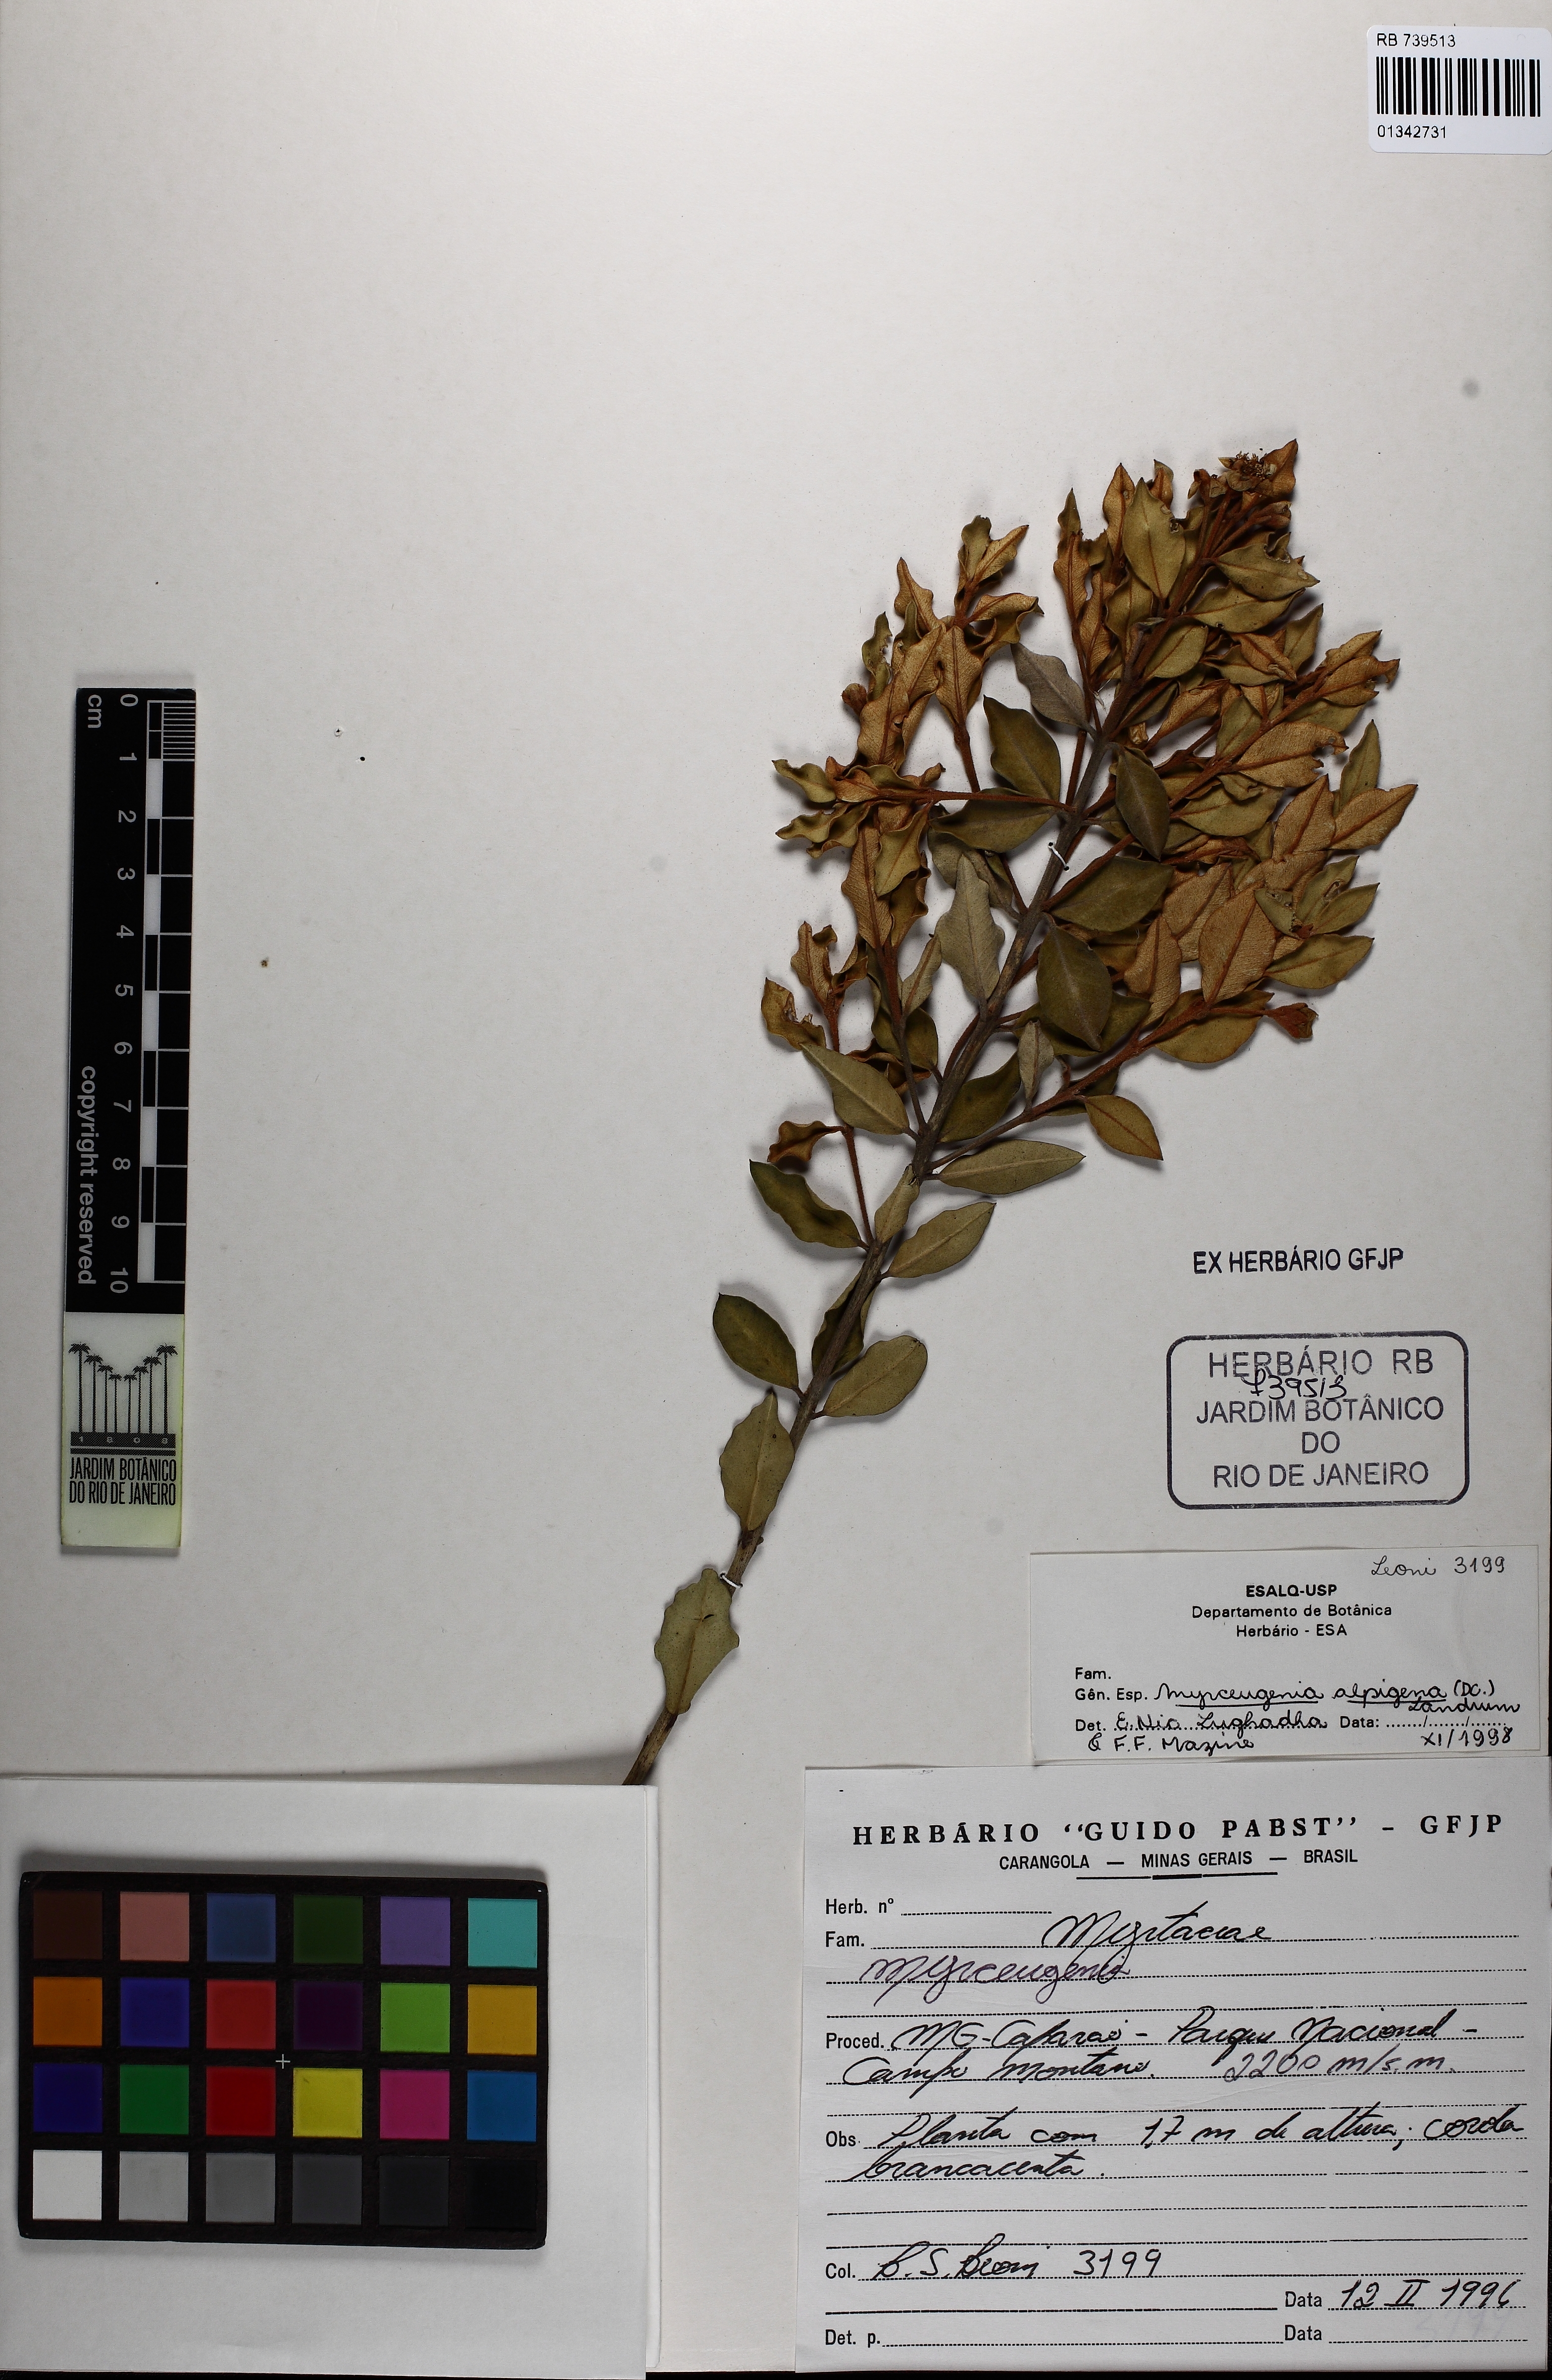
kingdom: Plantae
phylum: Tracheophyta
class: Magnoliopsida
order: Myrtales
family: Myrtaceae
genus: Myrceugenia
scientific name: Myrceugenia alpigena
